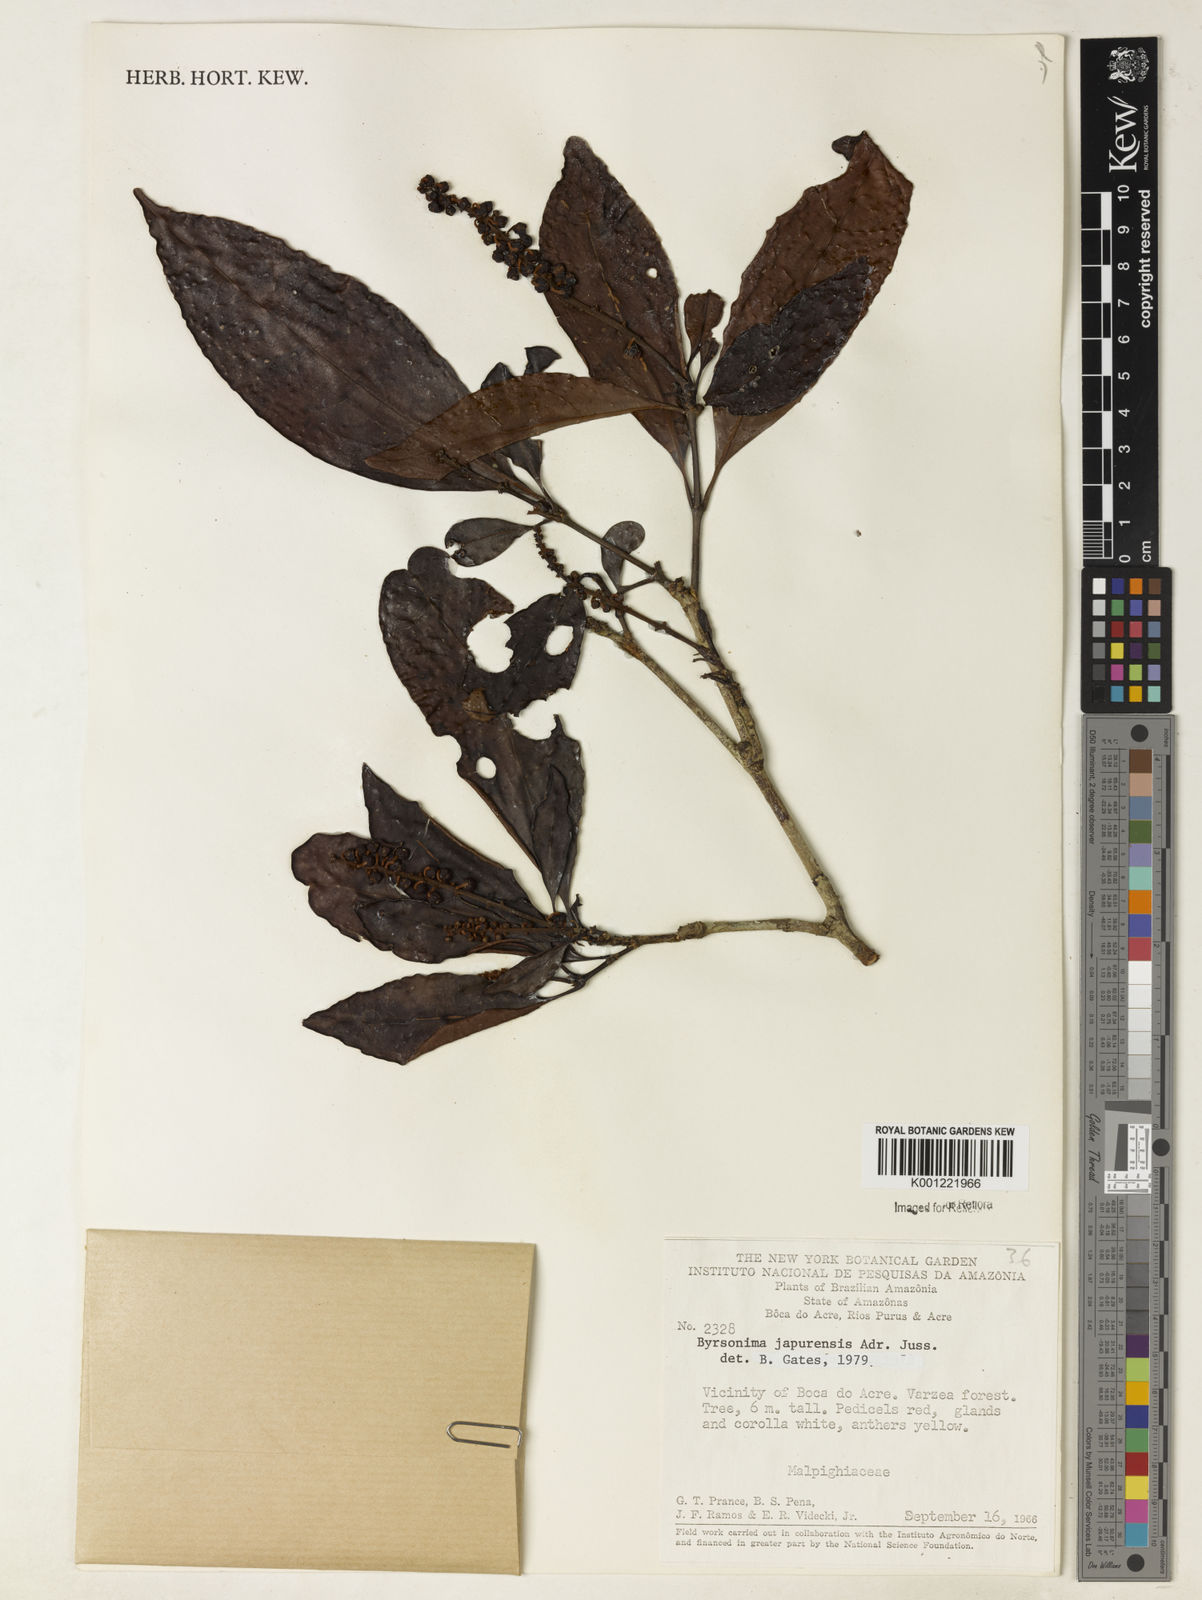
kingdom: Plantae
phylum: Tracheophyta
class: Magnoliopsida
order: Malpighiales
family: Malpighiaceae
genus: Byrsonima
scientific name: Byrsonima japurensis
